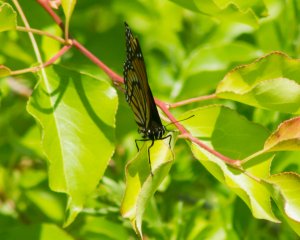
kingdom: Animalia
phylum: Arthropoda
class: Insecta
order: Lepidoptera
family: Nymphalidae
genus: Limenitis
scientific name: Limenitis archippus
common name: Viceroy
